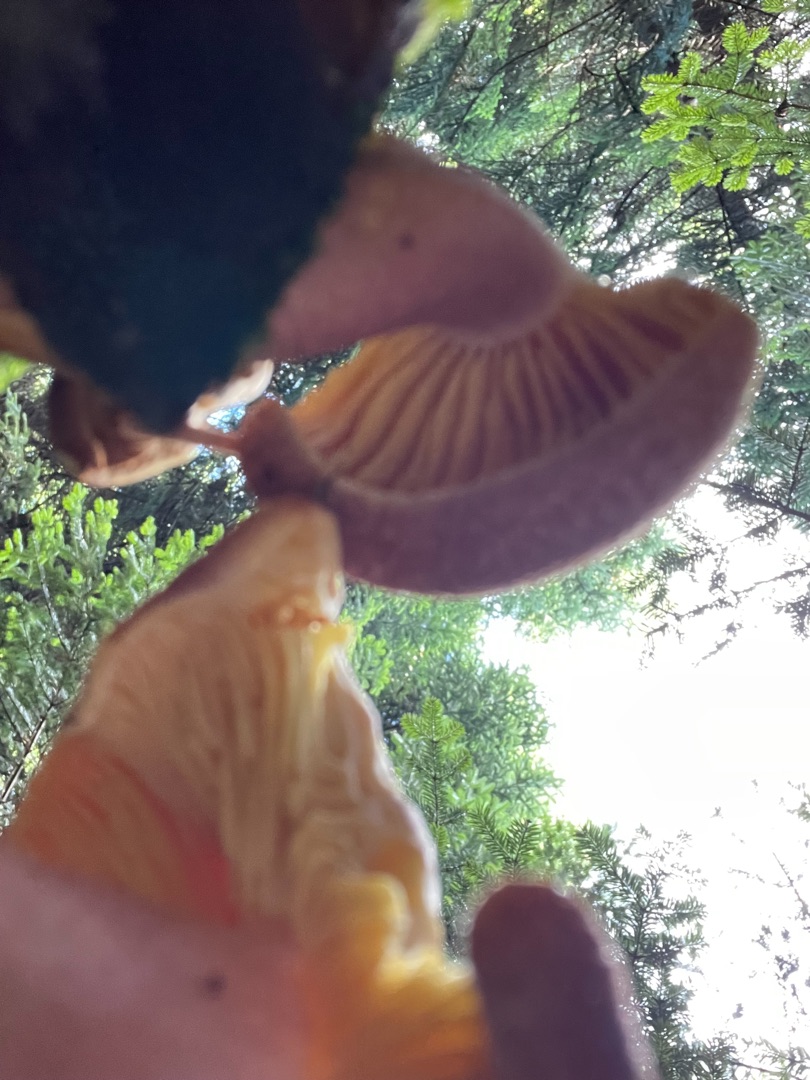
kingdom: Fungi
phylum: Basidiomycota
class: Agaricomycetes
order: Agaricales
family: Tricholomataceae
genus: Tricholomopsis
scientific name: Tricholomopsis rutilans
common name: Purpur-væbnerhat
